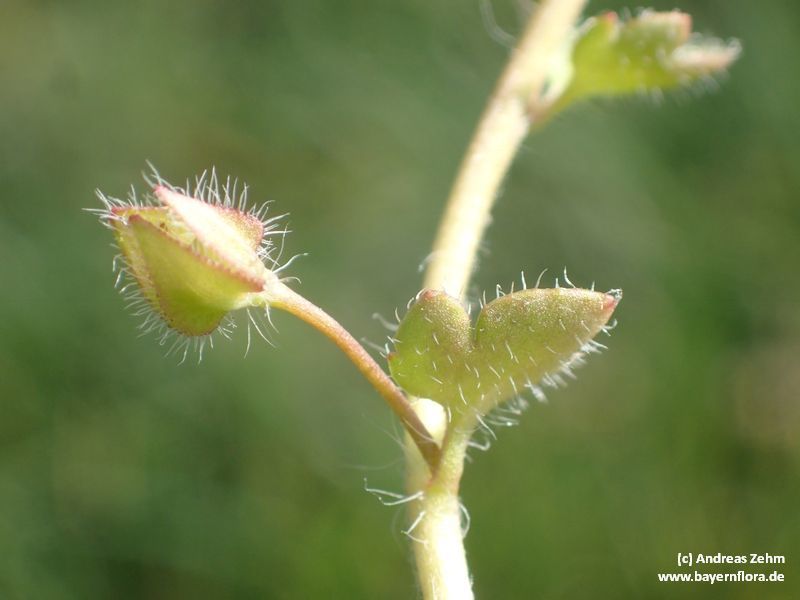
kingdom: Plantae
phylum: Tracheophyta
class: Magnoliopsida
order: Lamiales
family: Plantaginaceae
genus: Veronica
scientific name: Veronica sublobata
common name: False ivy-leaved speedwell
